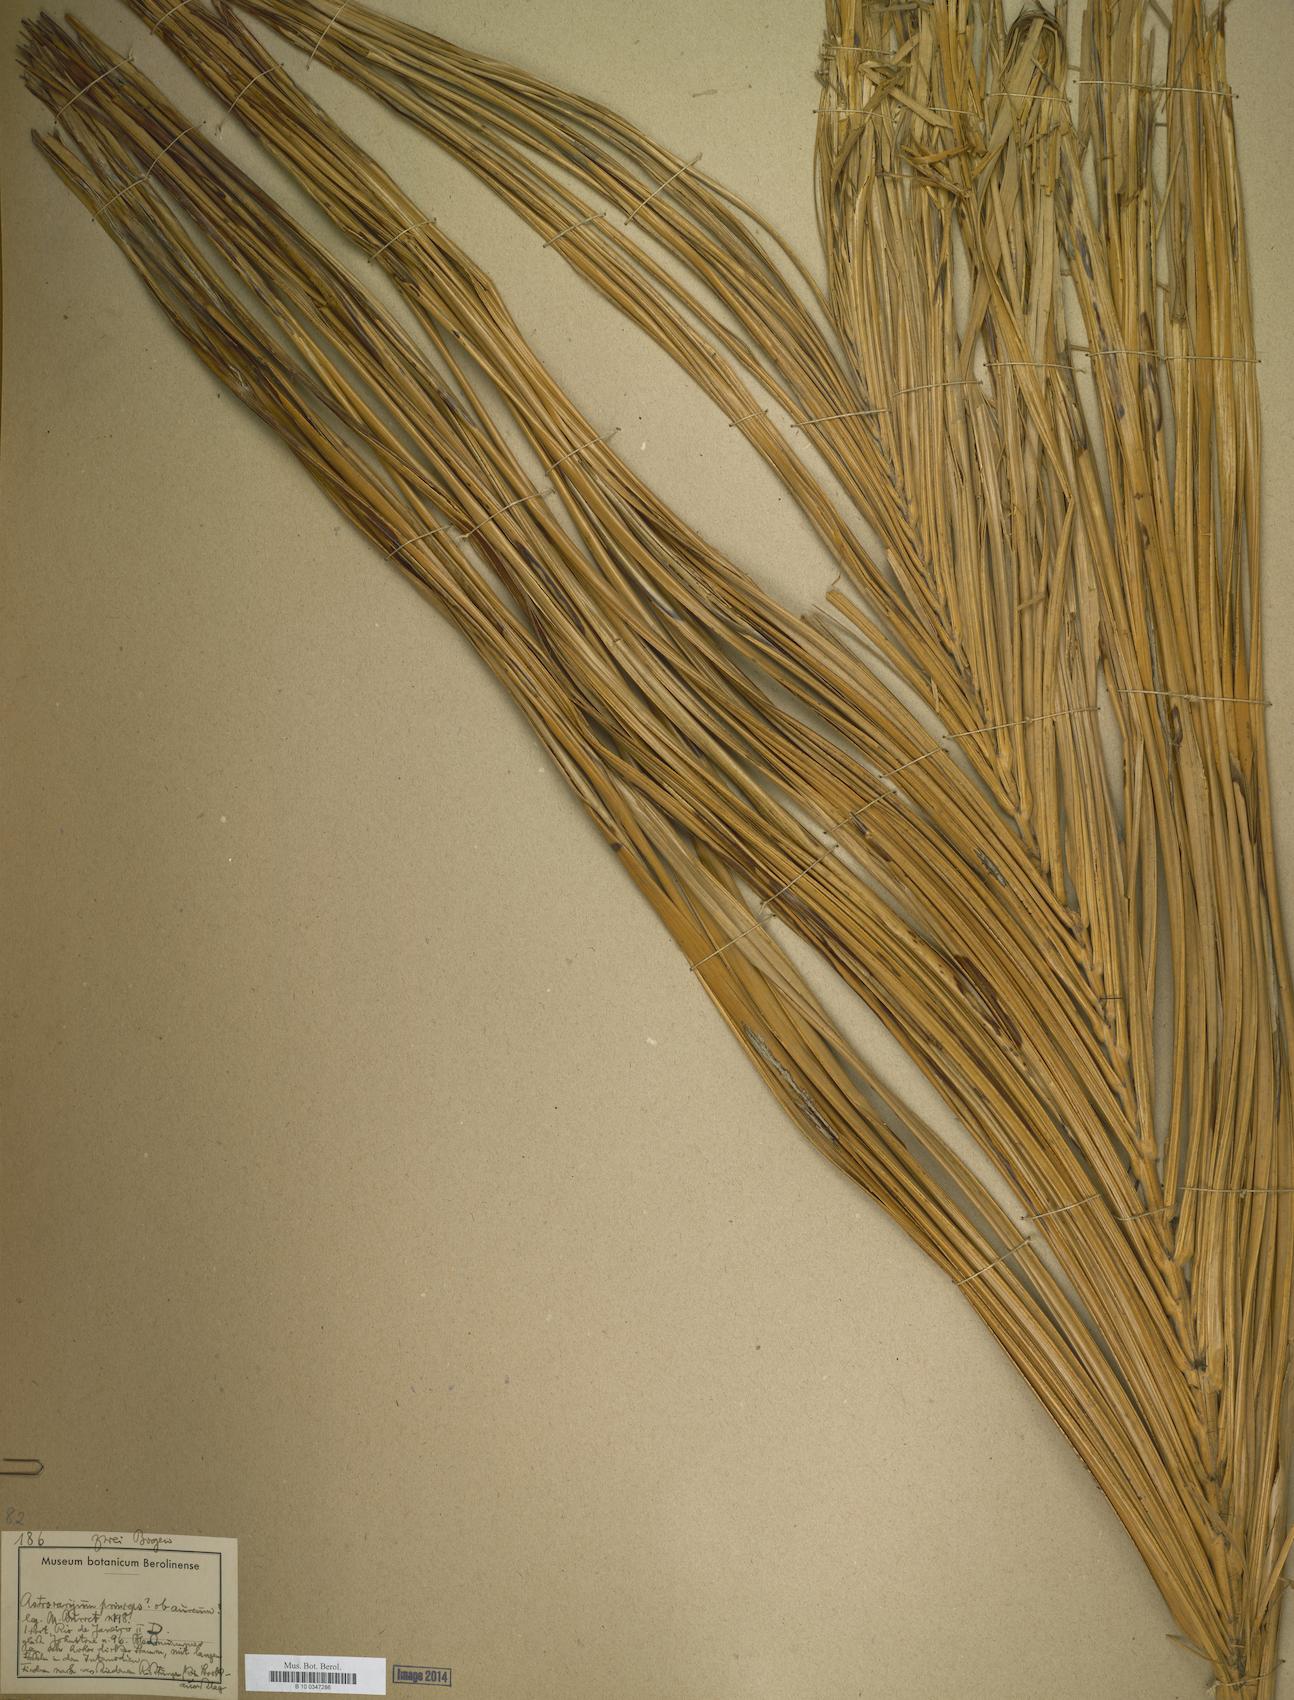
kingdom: Plantae
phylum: Tracheophyta
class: Liliopsida
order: Arecales
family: Arecaceae
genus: Astrocaryum
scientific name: Astrocaryum
